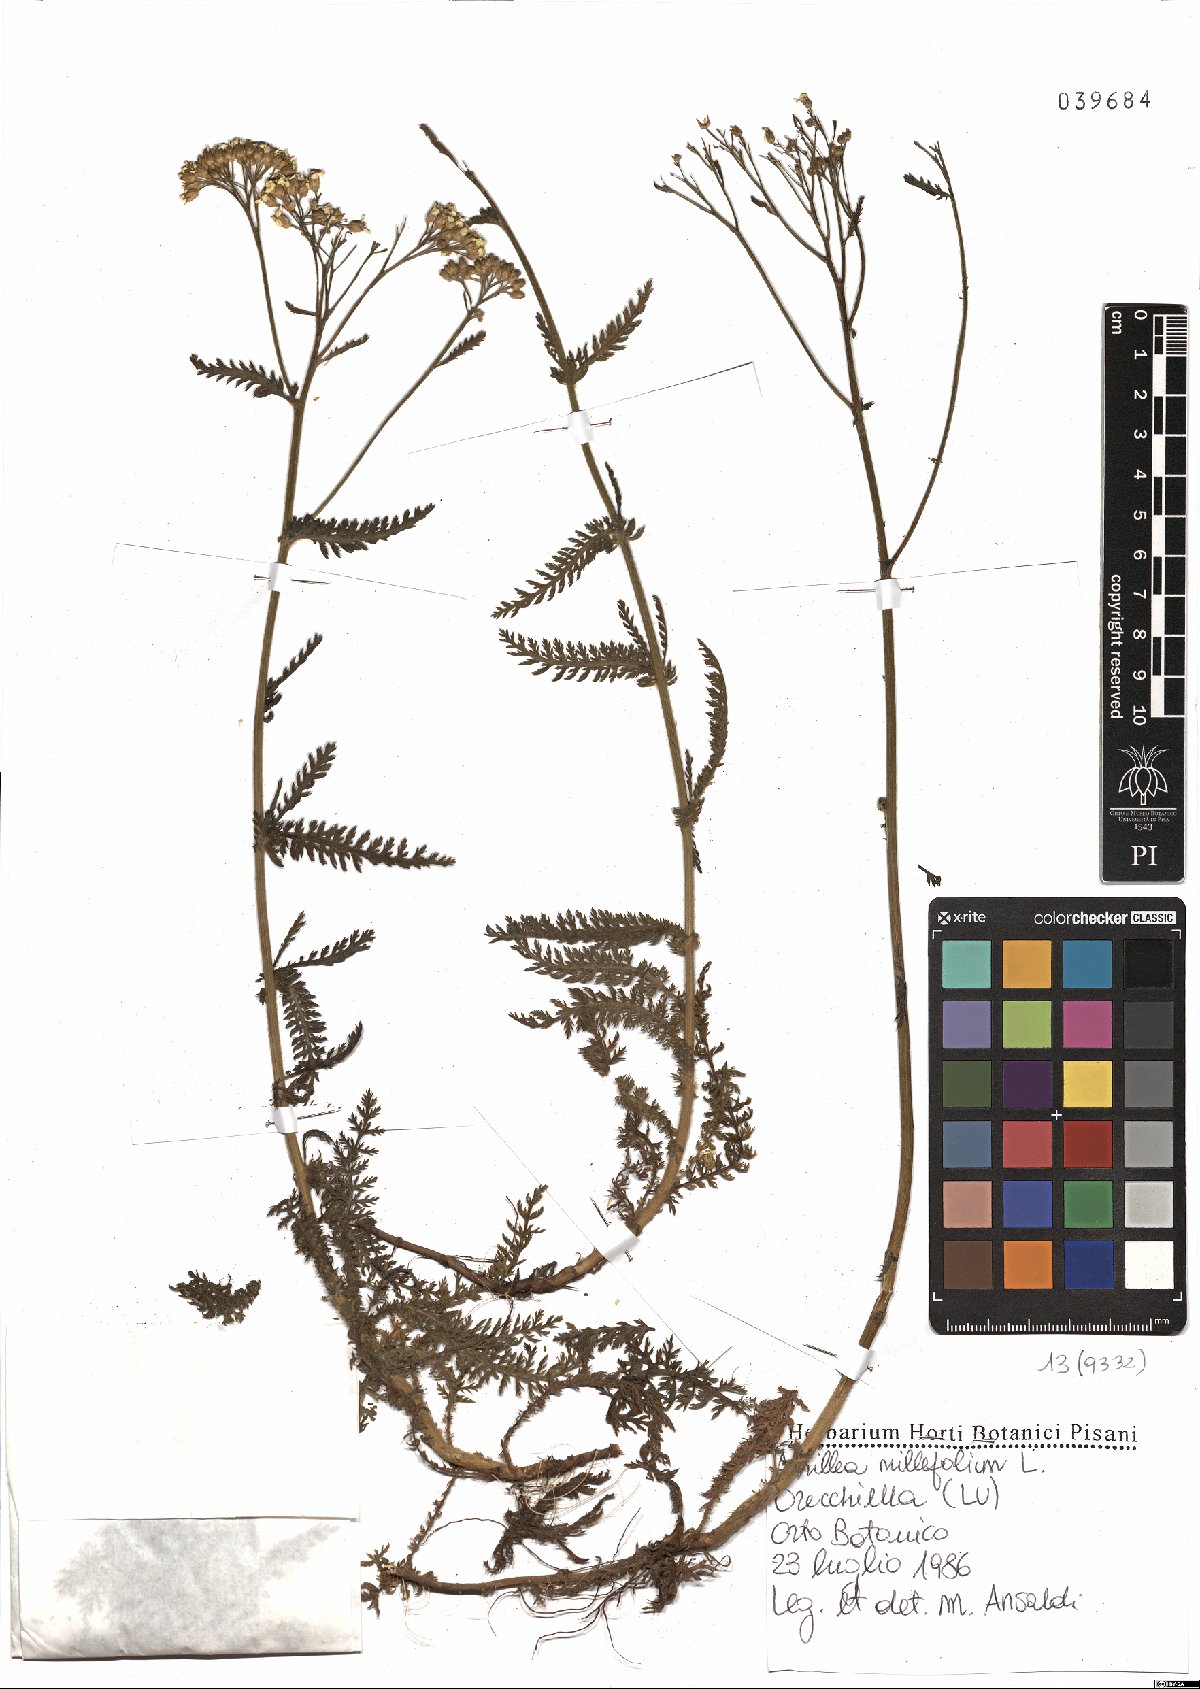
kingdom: Plantae
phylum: Tracheophyta
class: Magnoliopsida
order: Asterales
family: Asteraceae
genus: Achillea
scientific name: Achillea millefolium
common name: Yarrow
